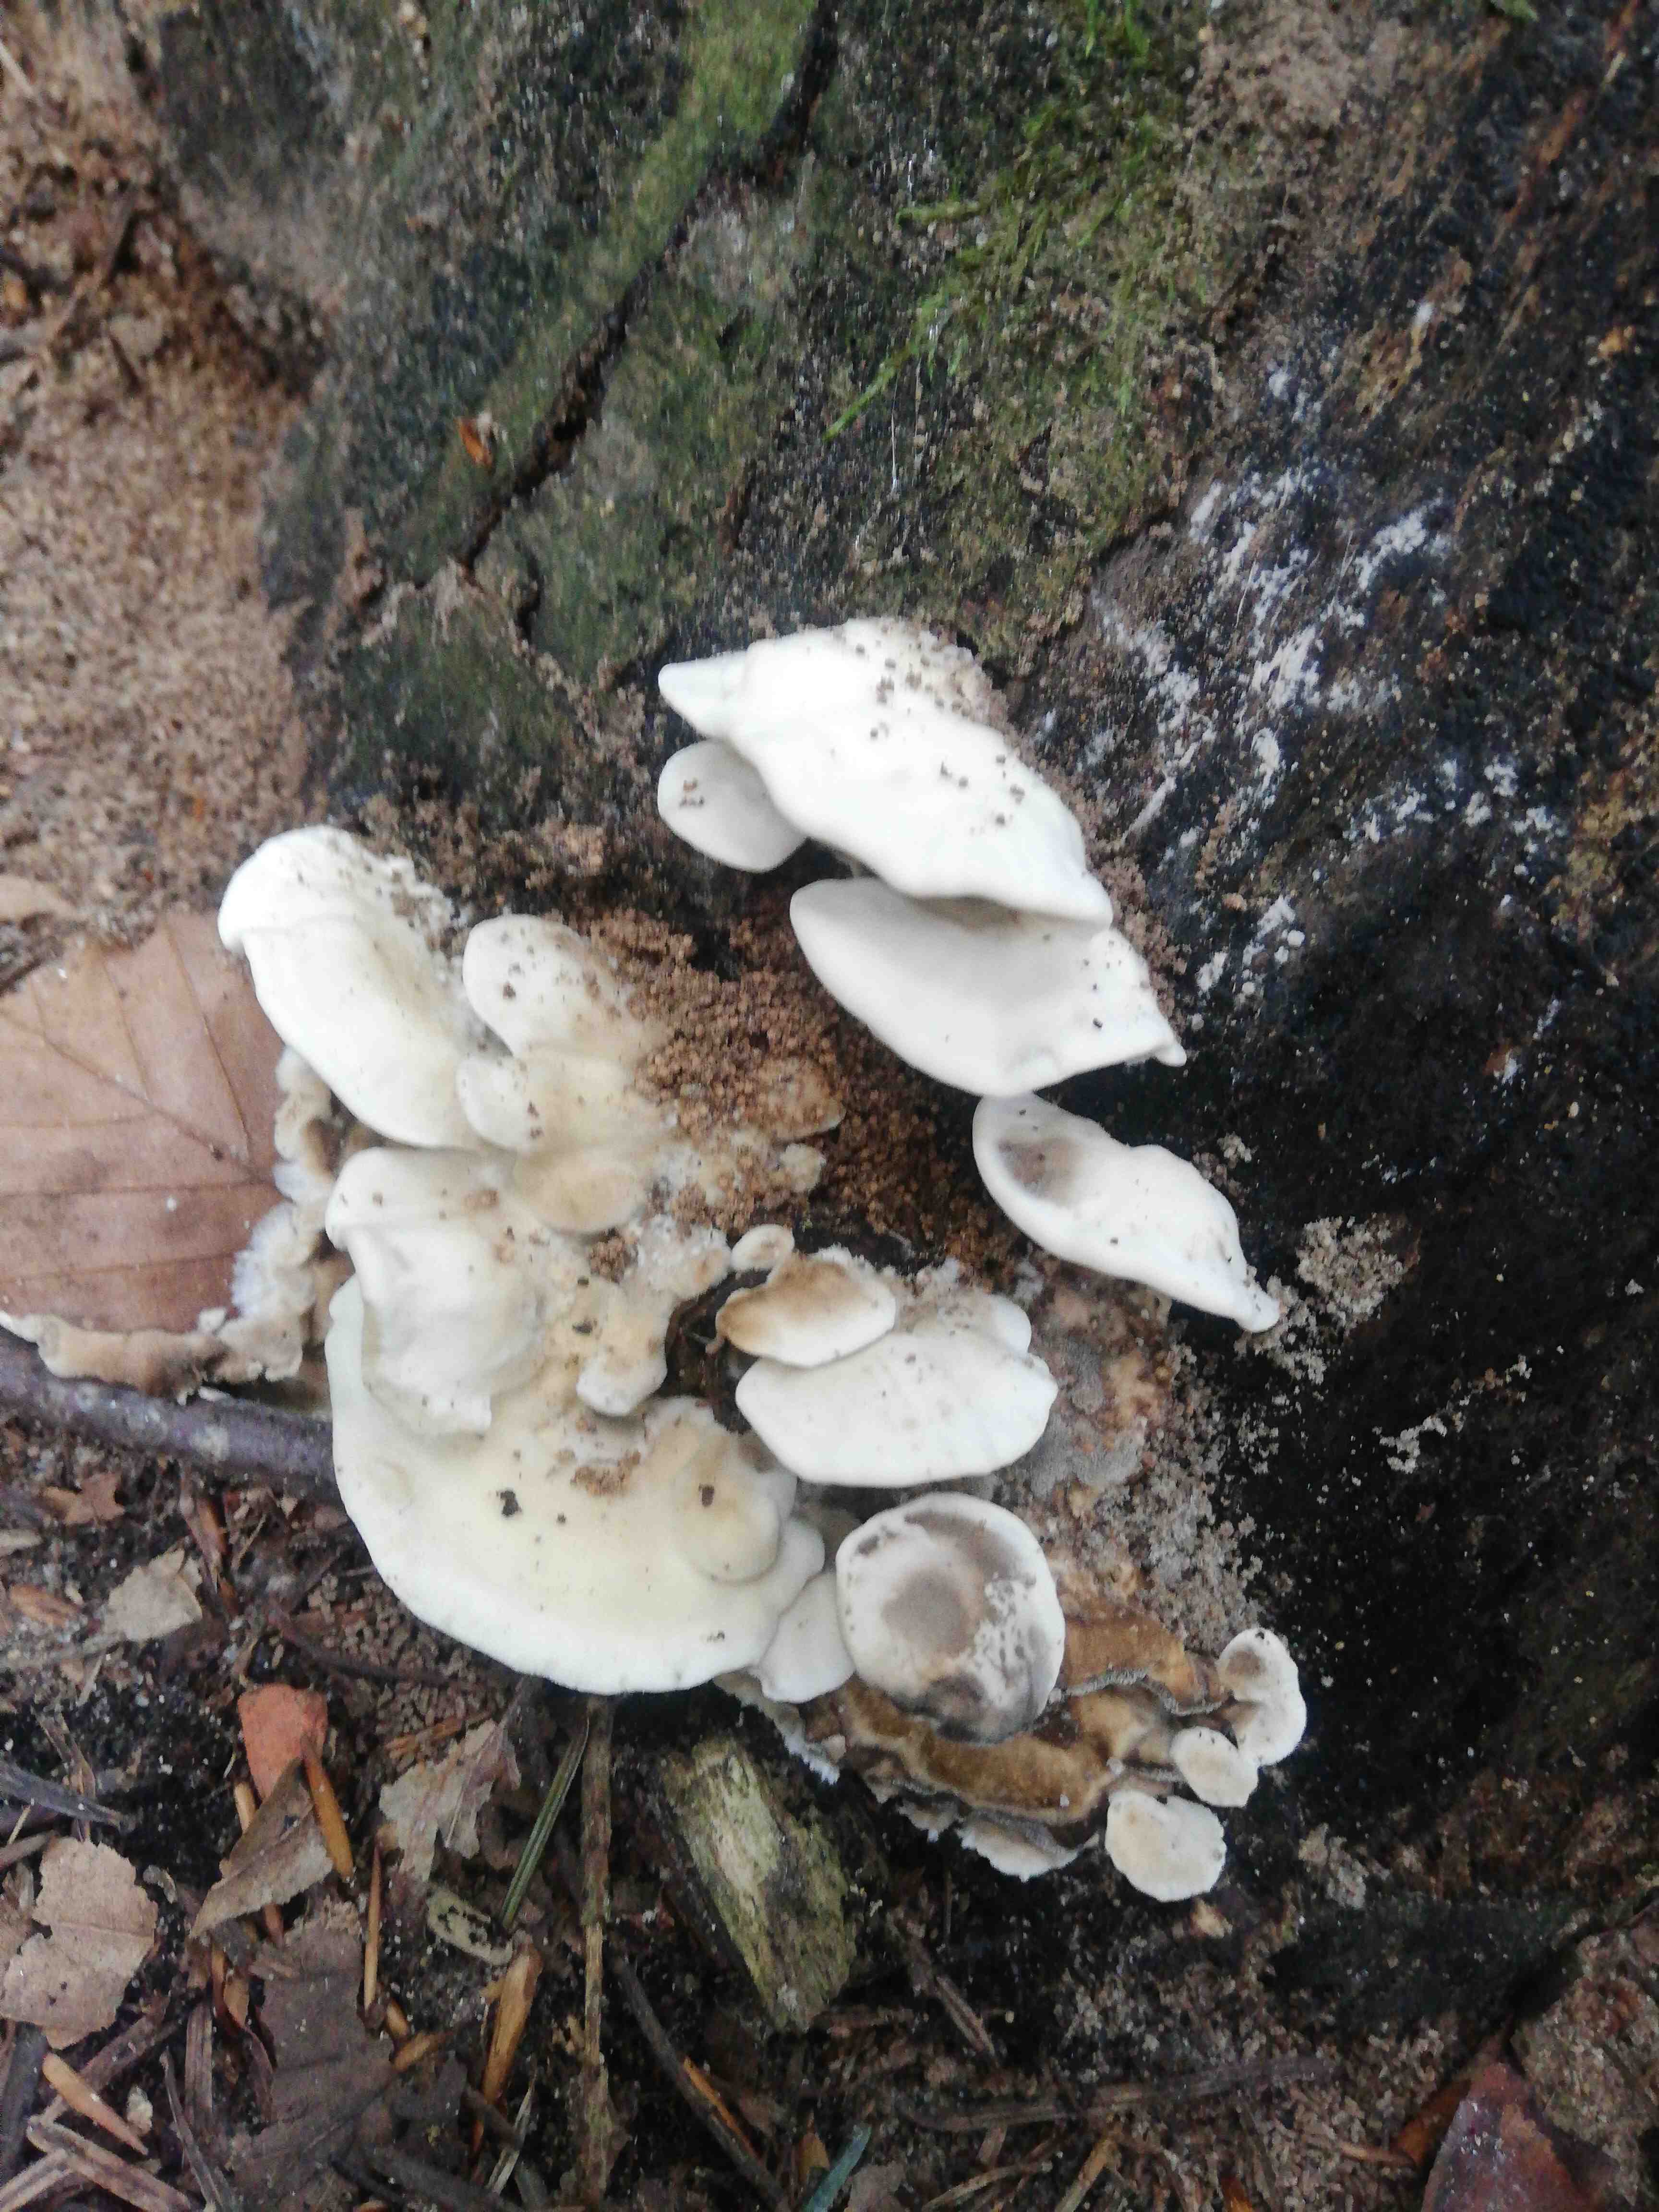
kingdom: Fungi
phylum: Basidiomycota
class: Agaricomycetes
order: Polyporales
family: Phanerochaetaceae
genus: Bjerkandera
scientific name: Bjerkandera
